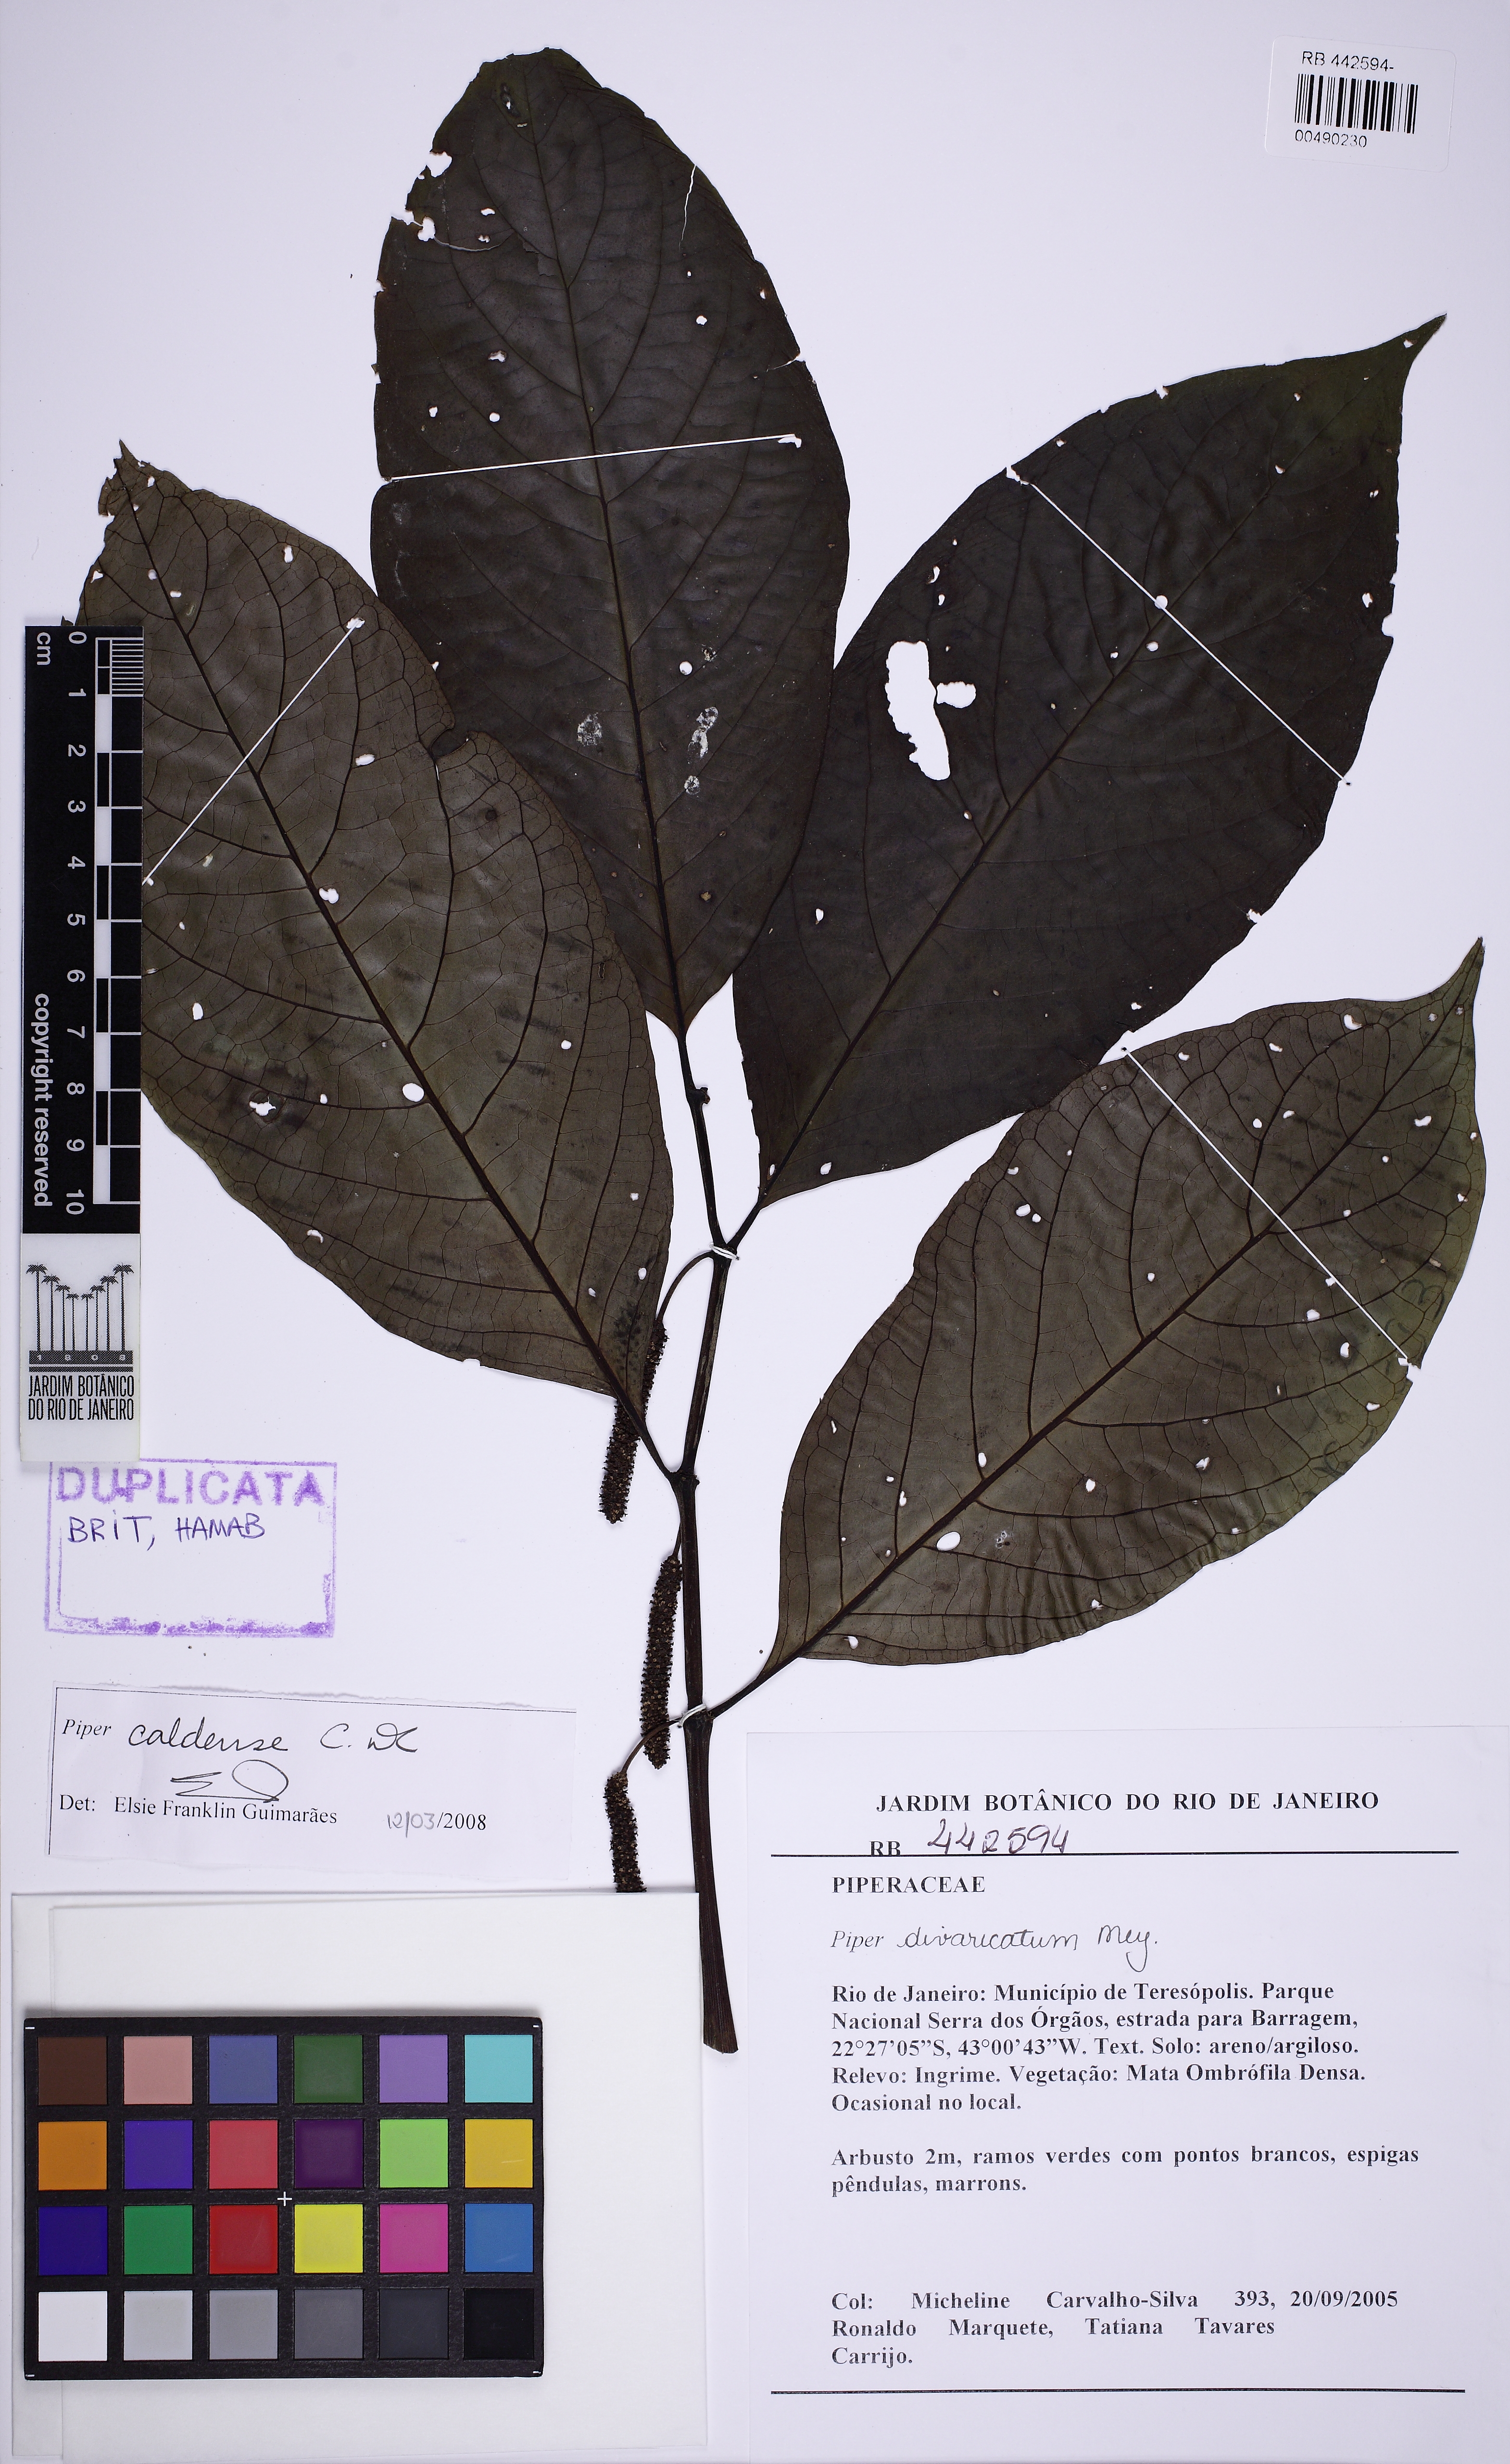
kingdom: Plantae
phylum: Tracheophyta
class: Magnoliopsida
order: Piperales
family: Piperaceae
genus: Piper
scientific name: Piper caldense
